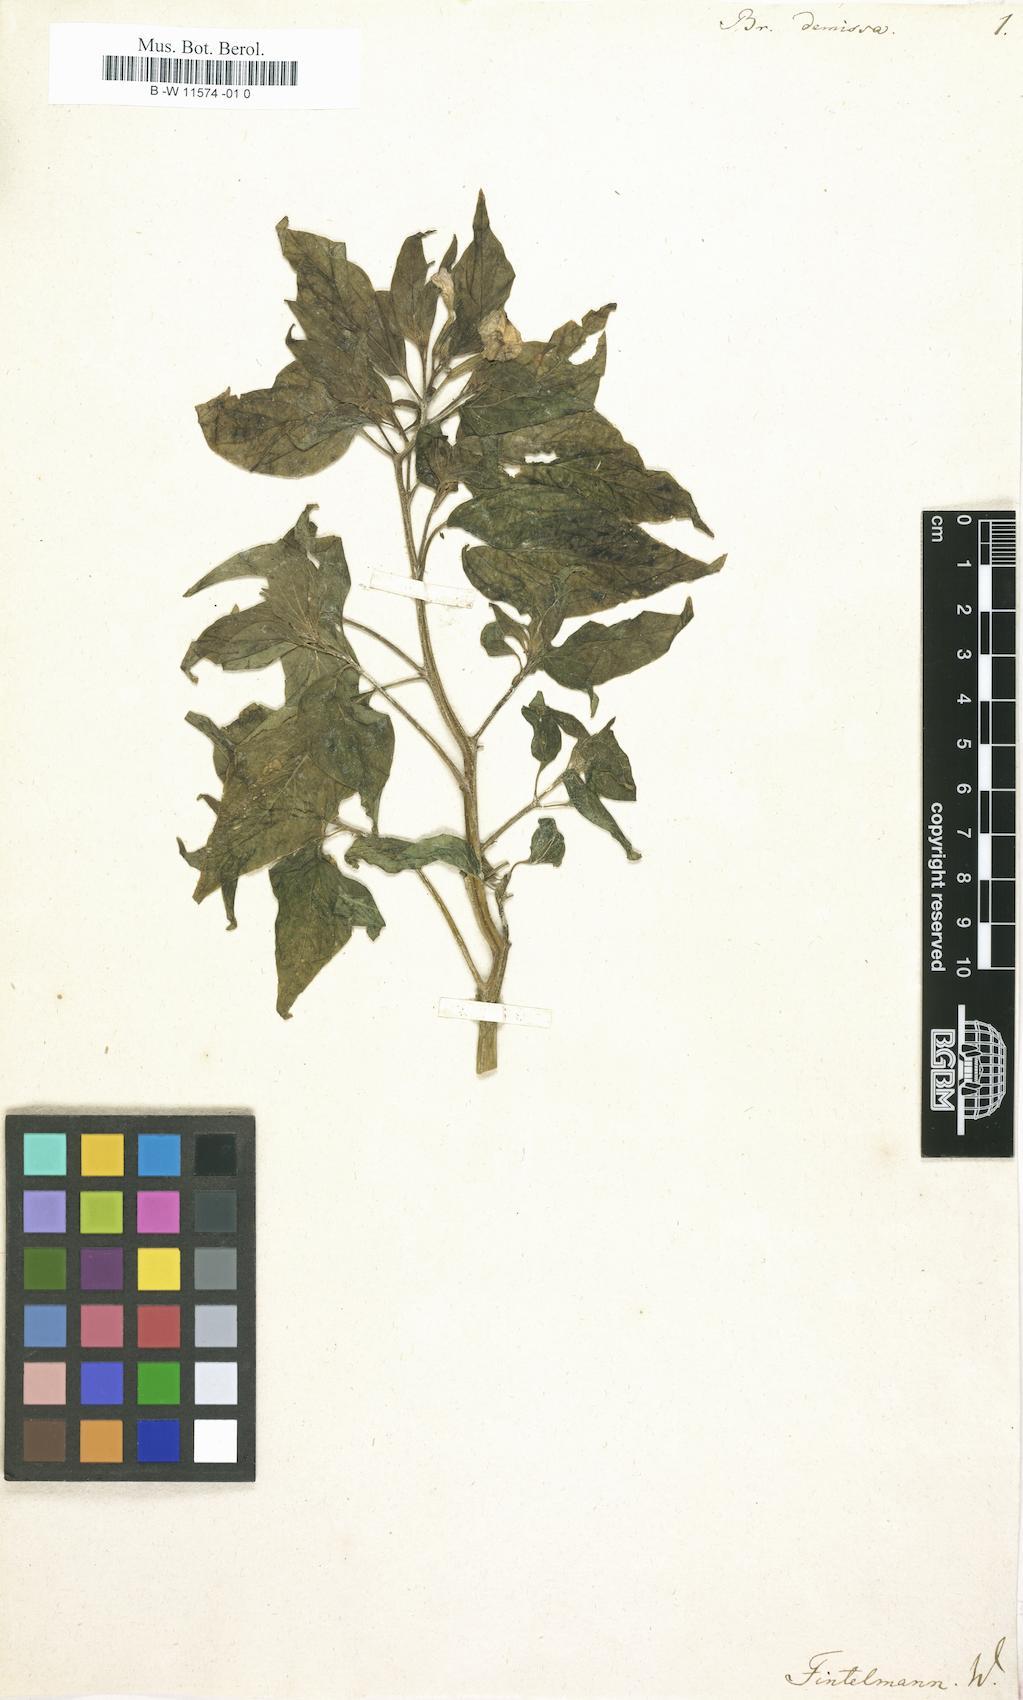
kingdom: Plantae
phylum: Tracheophyta
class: Magnoliopsida
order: Solanales
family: Solanaceae
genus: Browallia
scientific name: Browallia americana
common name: Jamaican forget-me-not
